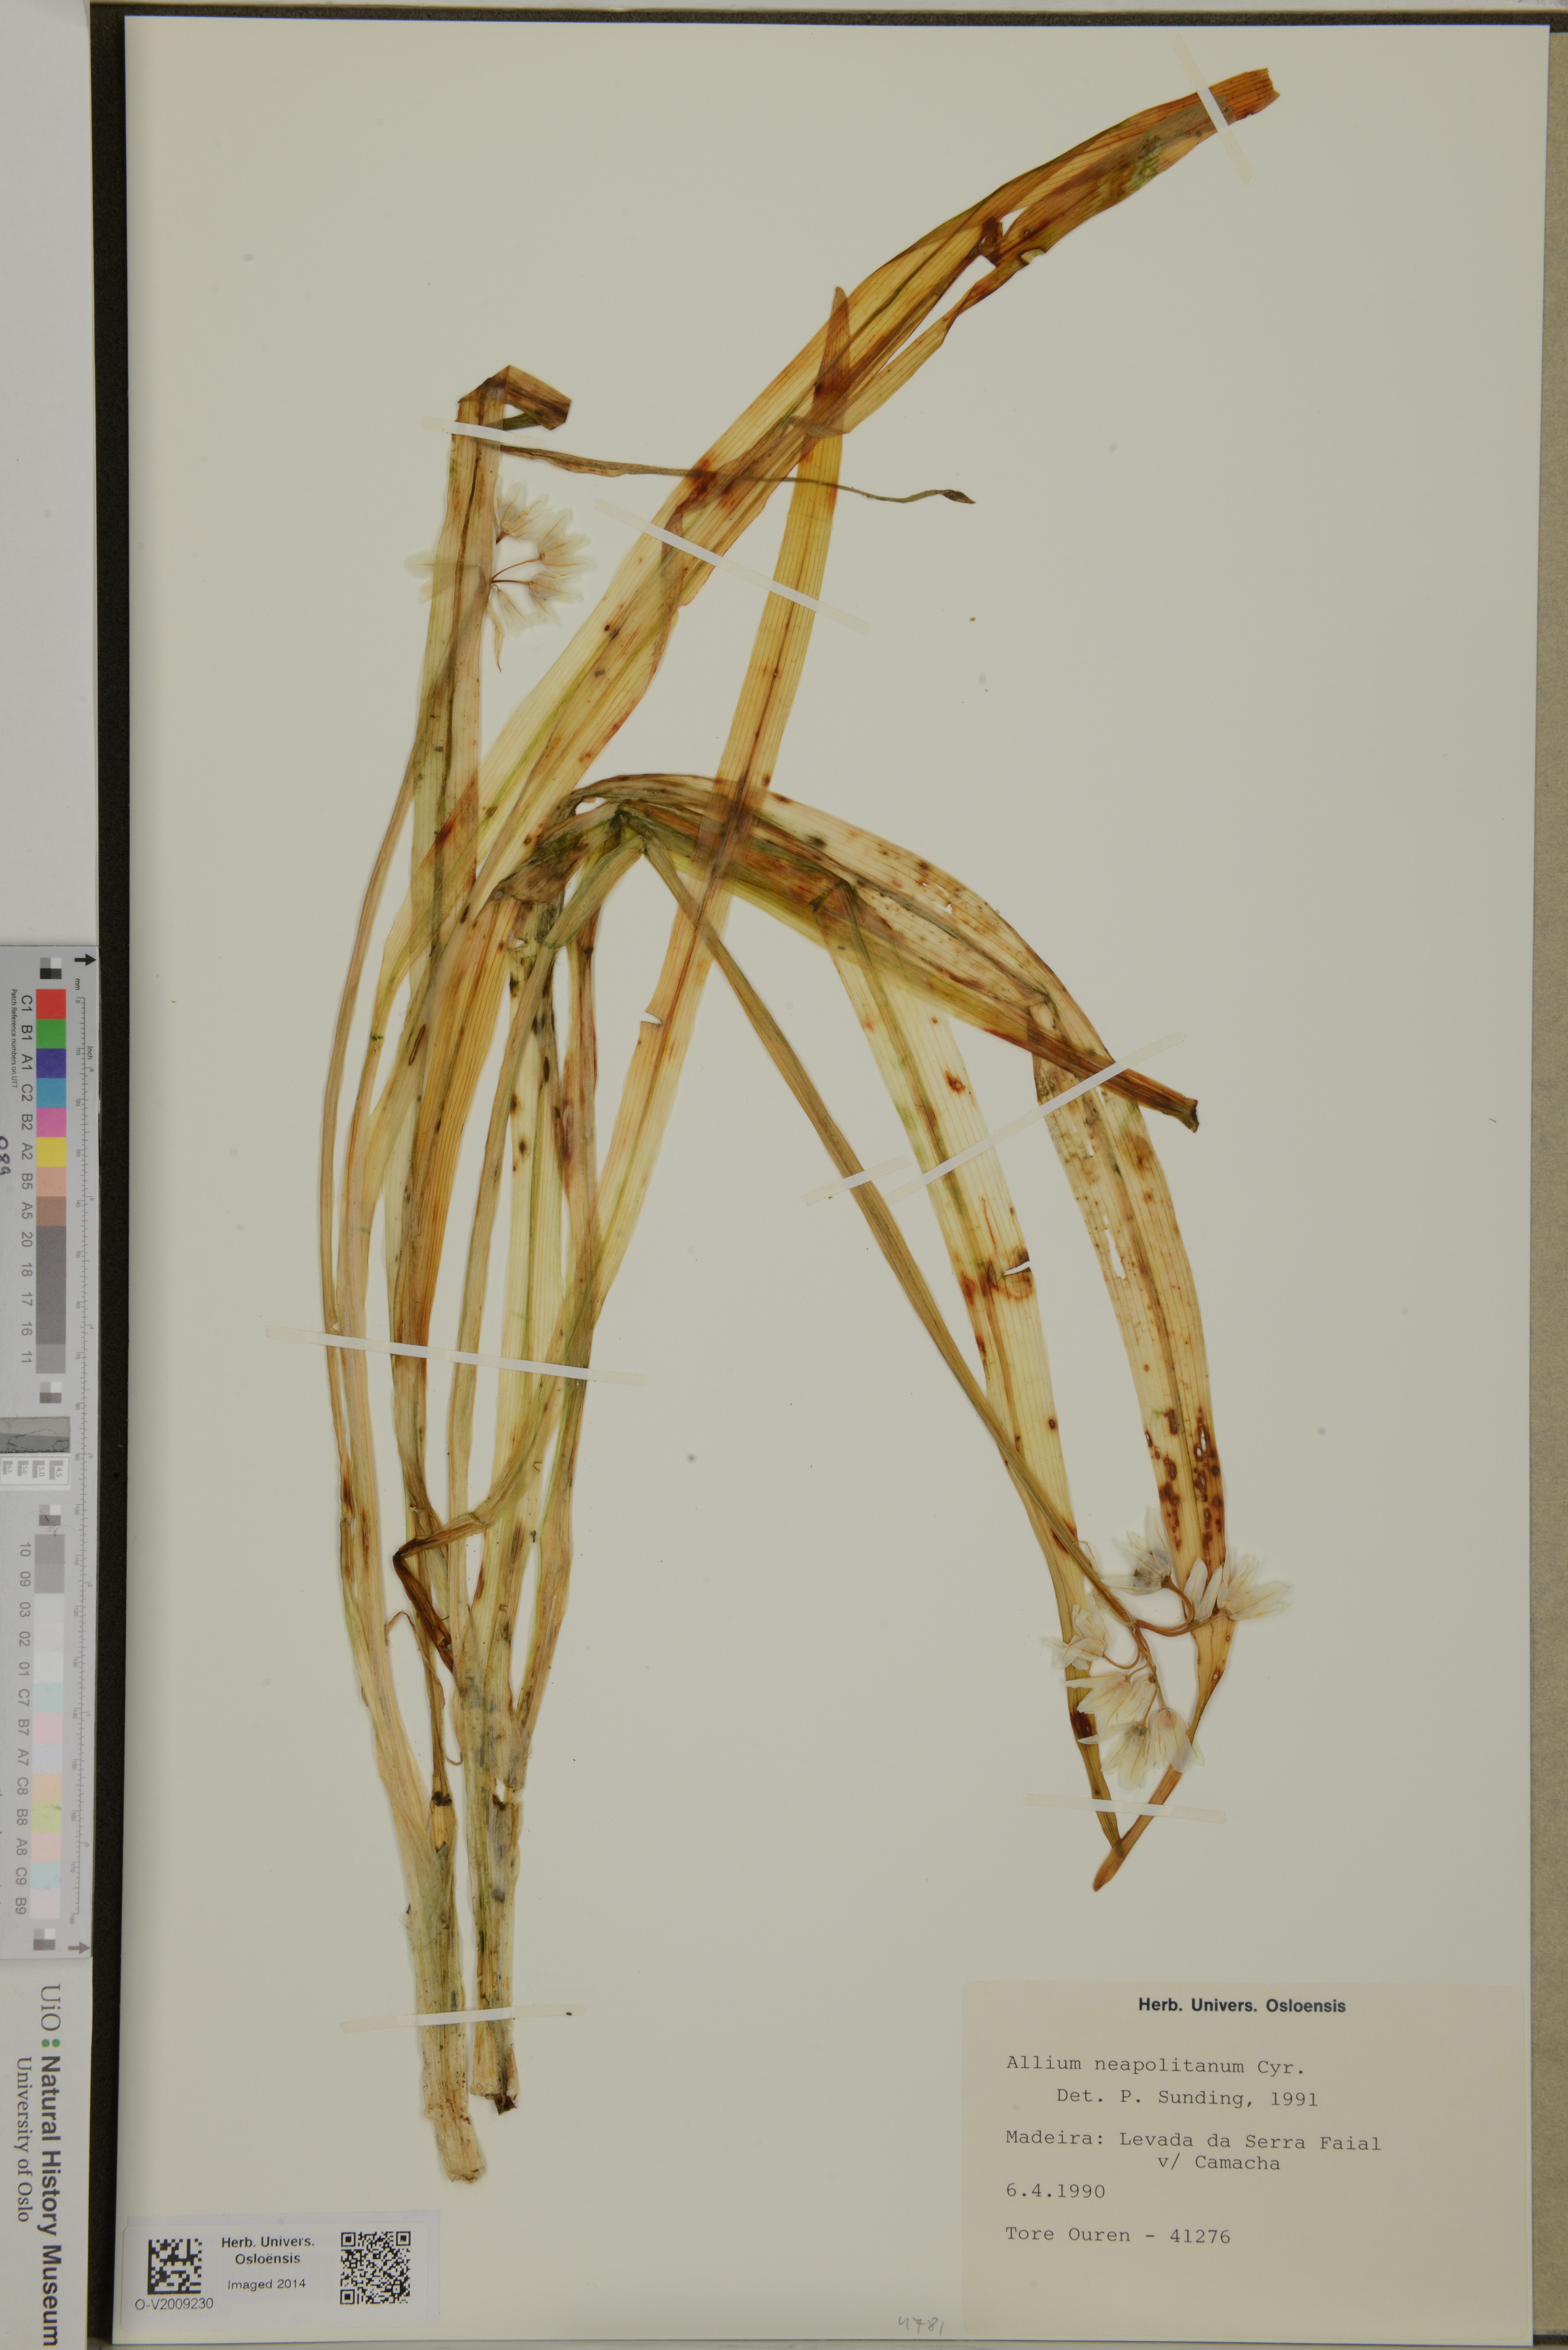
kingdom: Plantae
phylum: Tracheophyta
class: Liliopsida
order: Asparagales
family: Amaryllidaceae
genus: Allium
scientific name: Allium neapolitanum
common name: Neapolitan garlic
